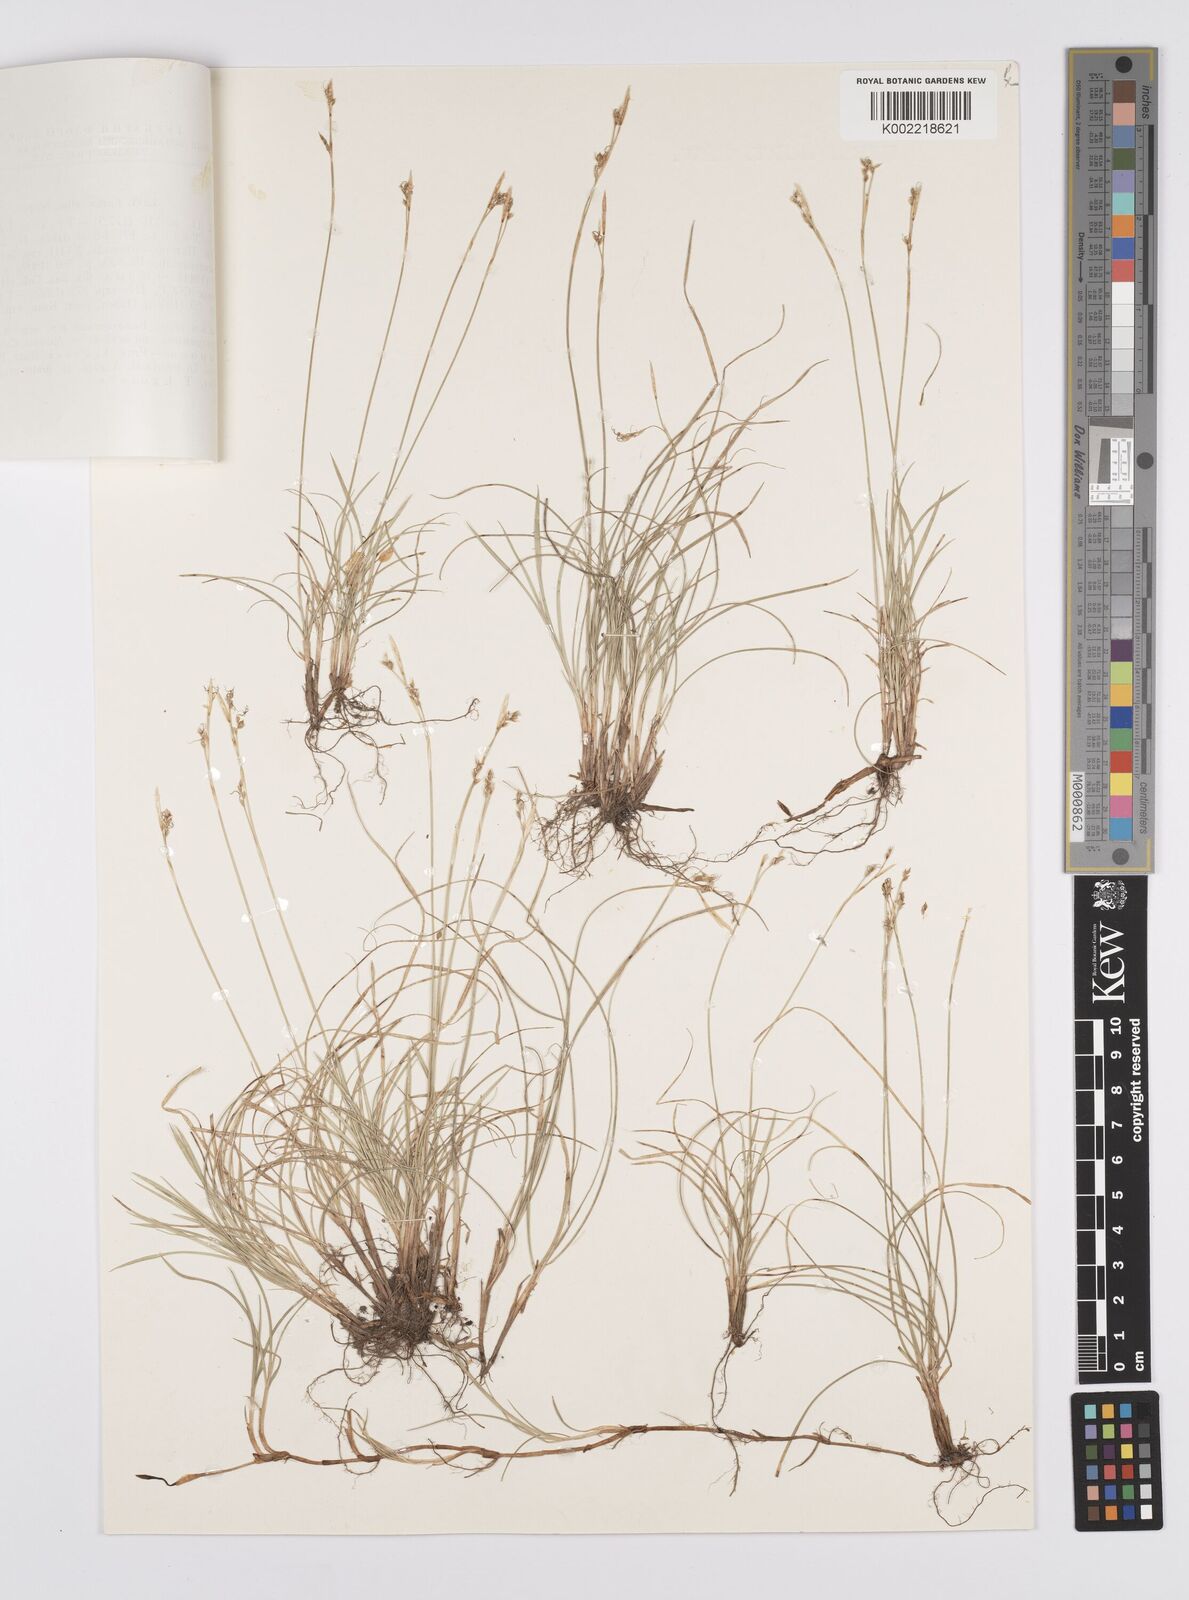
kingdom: Plantae
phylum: Tracheophyta
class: Liliopsida
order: Poales
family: Cyperaceae
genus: Carex
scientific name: Carex alba
